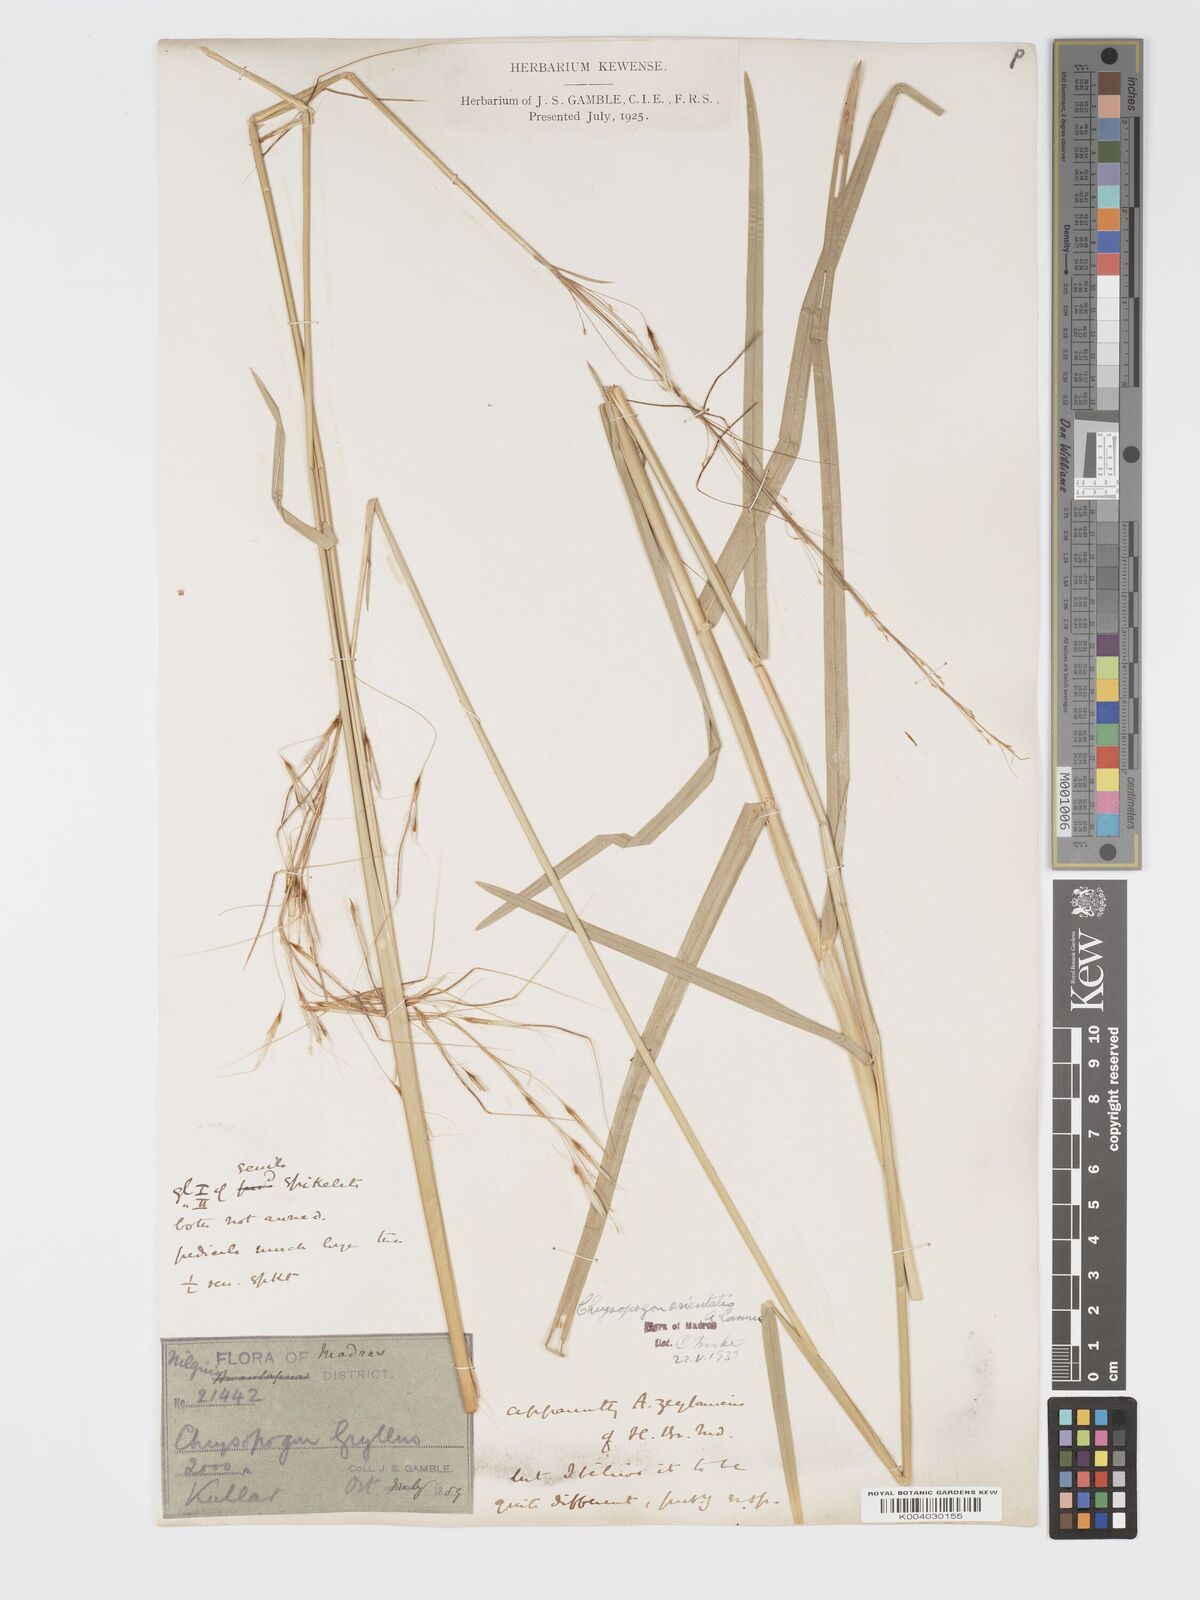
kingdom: Plantae
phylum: Tracheophyta
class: Liliopsida
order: Poales
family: Poaceae
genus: Chrysopogon
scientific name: Chrysopogon orientalis
